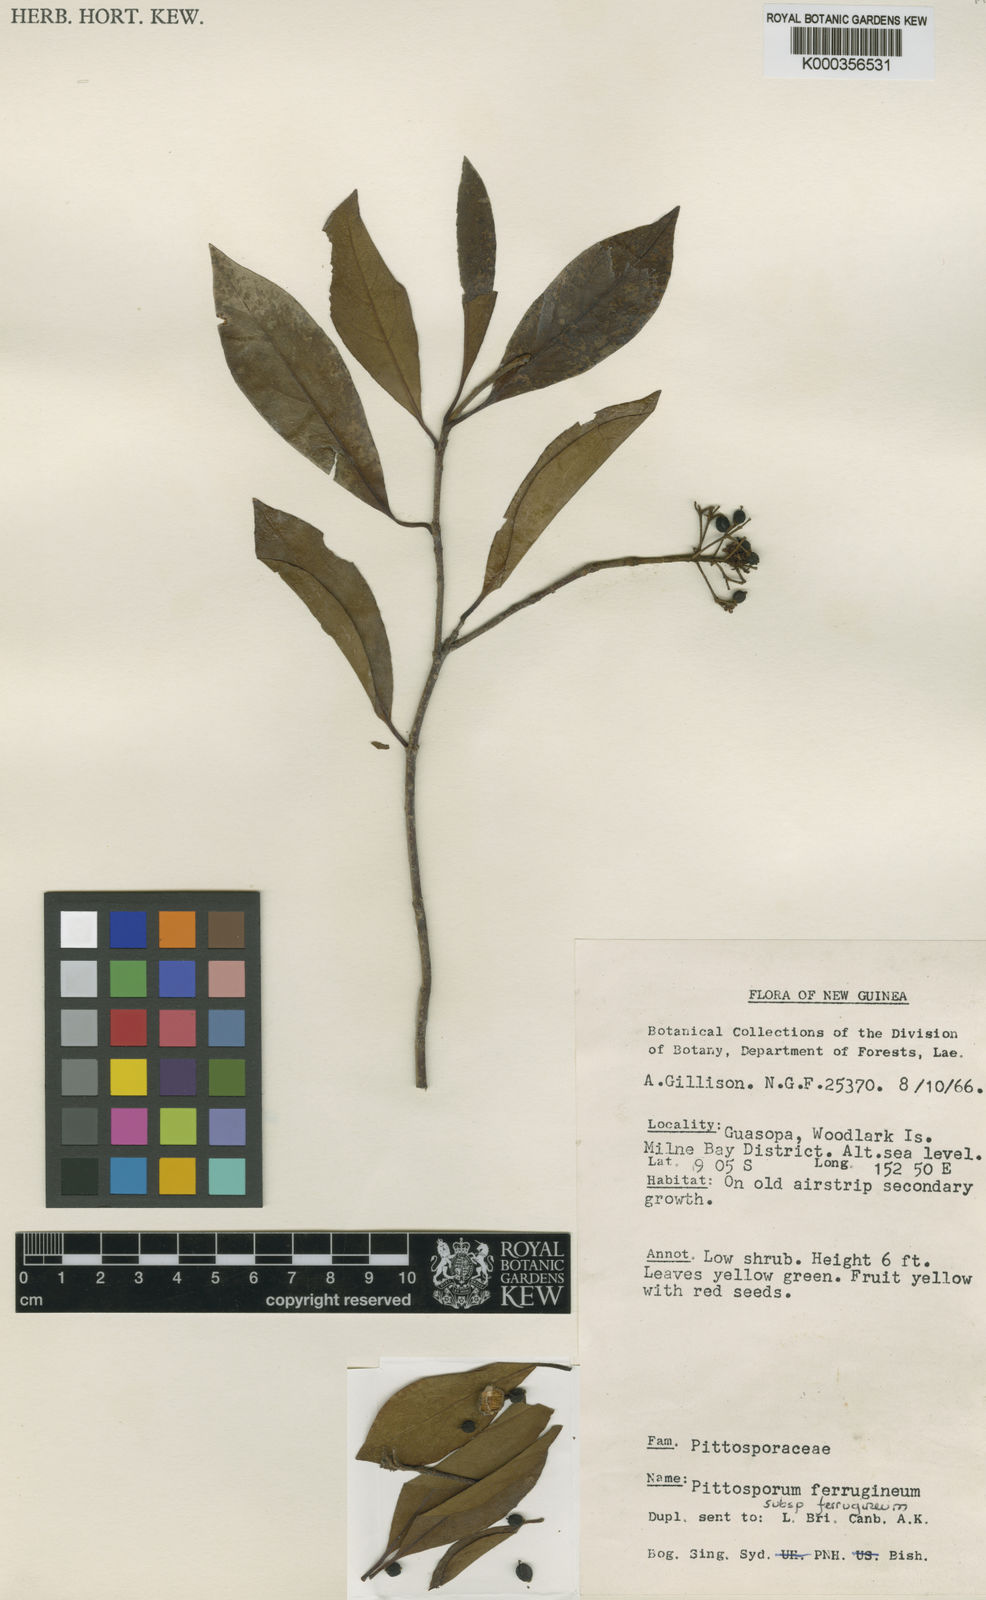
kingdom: Plantae
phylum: Tracheophyta
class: Magnoliopsida
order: Apiales
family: Pittosporaceae
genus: Pittosporum
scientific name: Pittosporum ferrugineum
